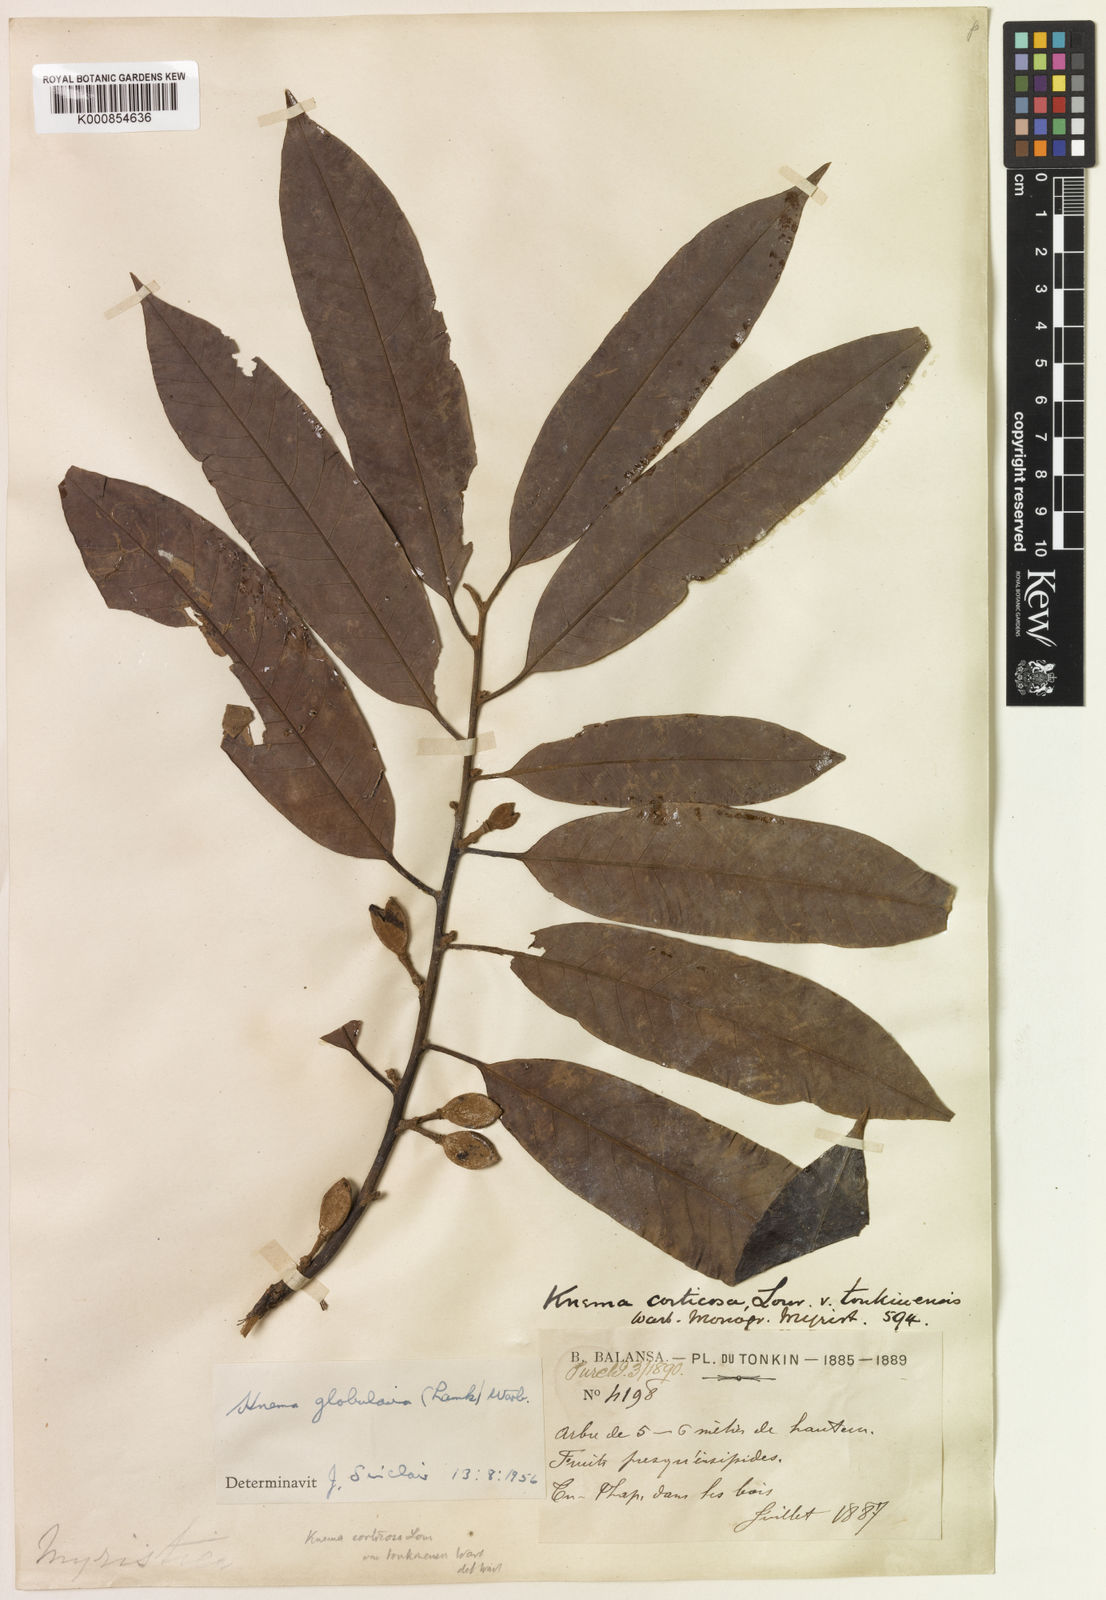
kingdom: Plantae
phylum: Tracheophyta
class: Magnoliopsida
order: Magnoliales
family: Myristicaceae
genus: Knema
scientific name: Knema globularia
